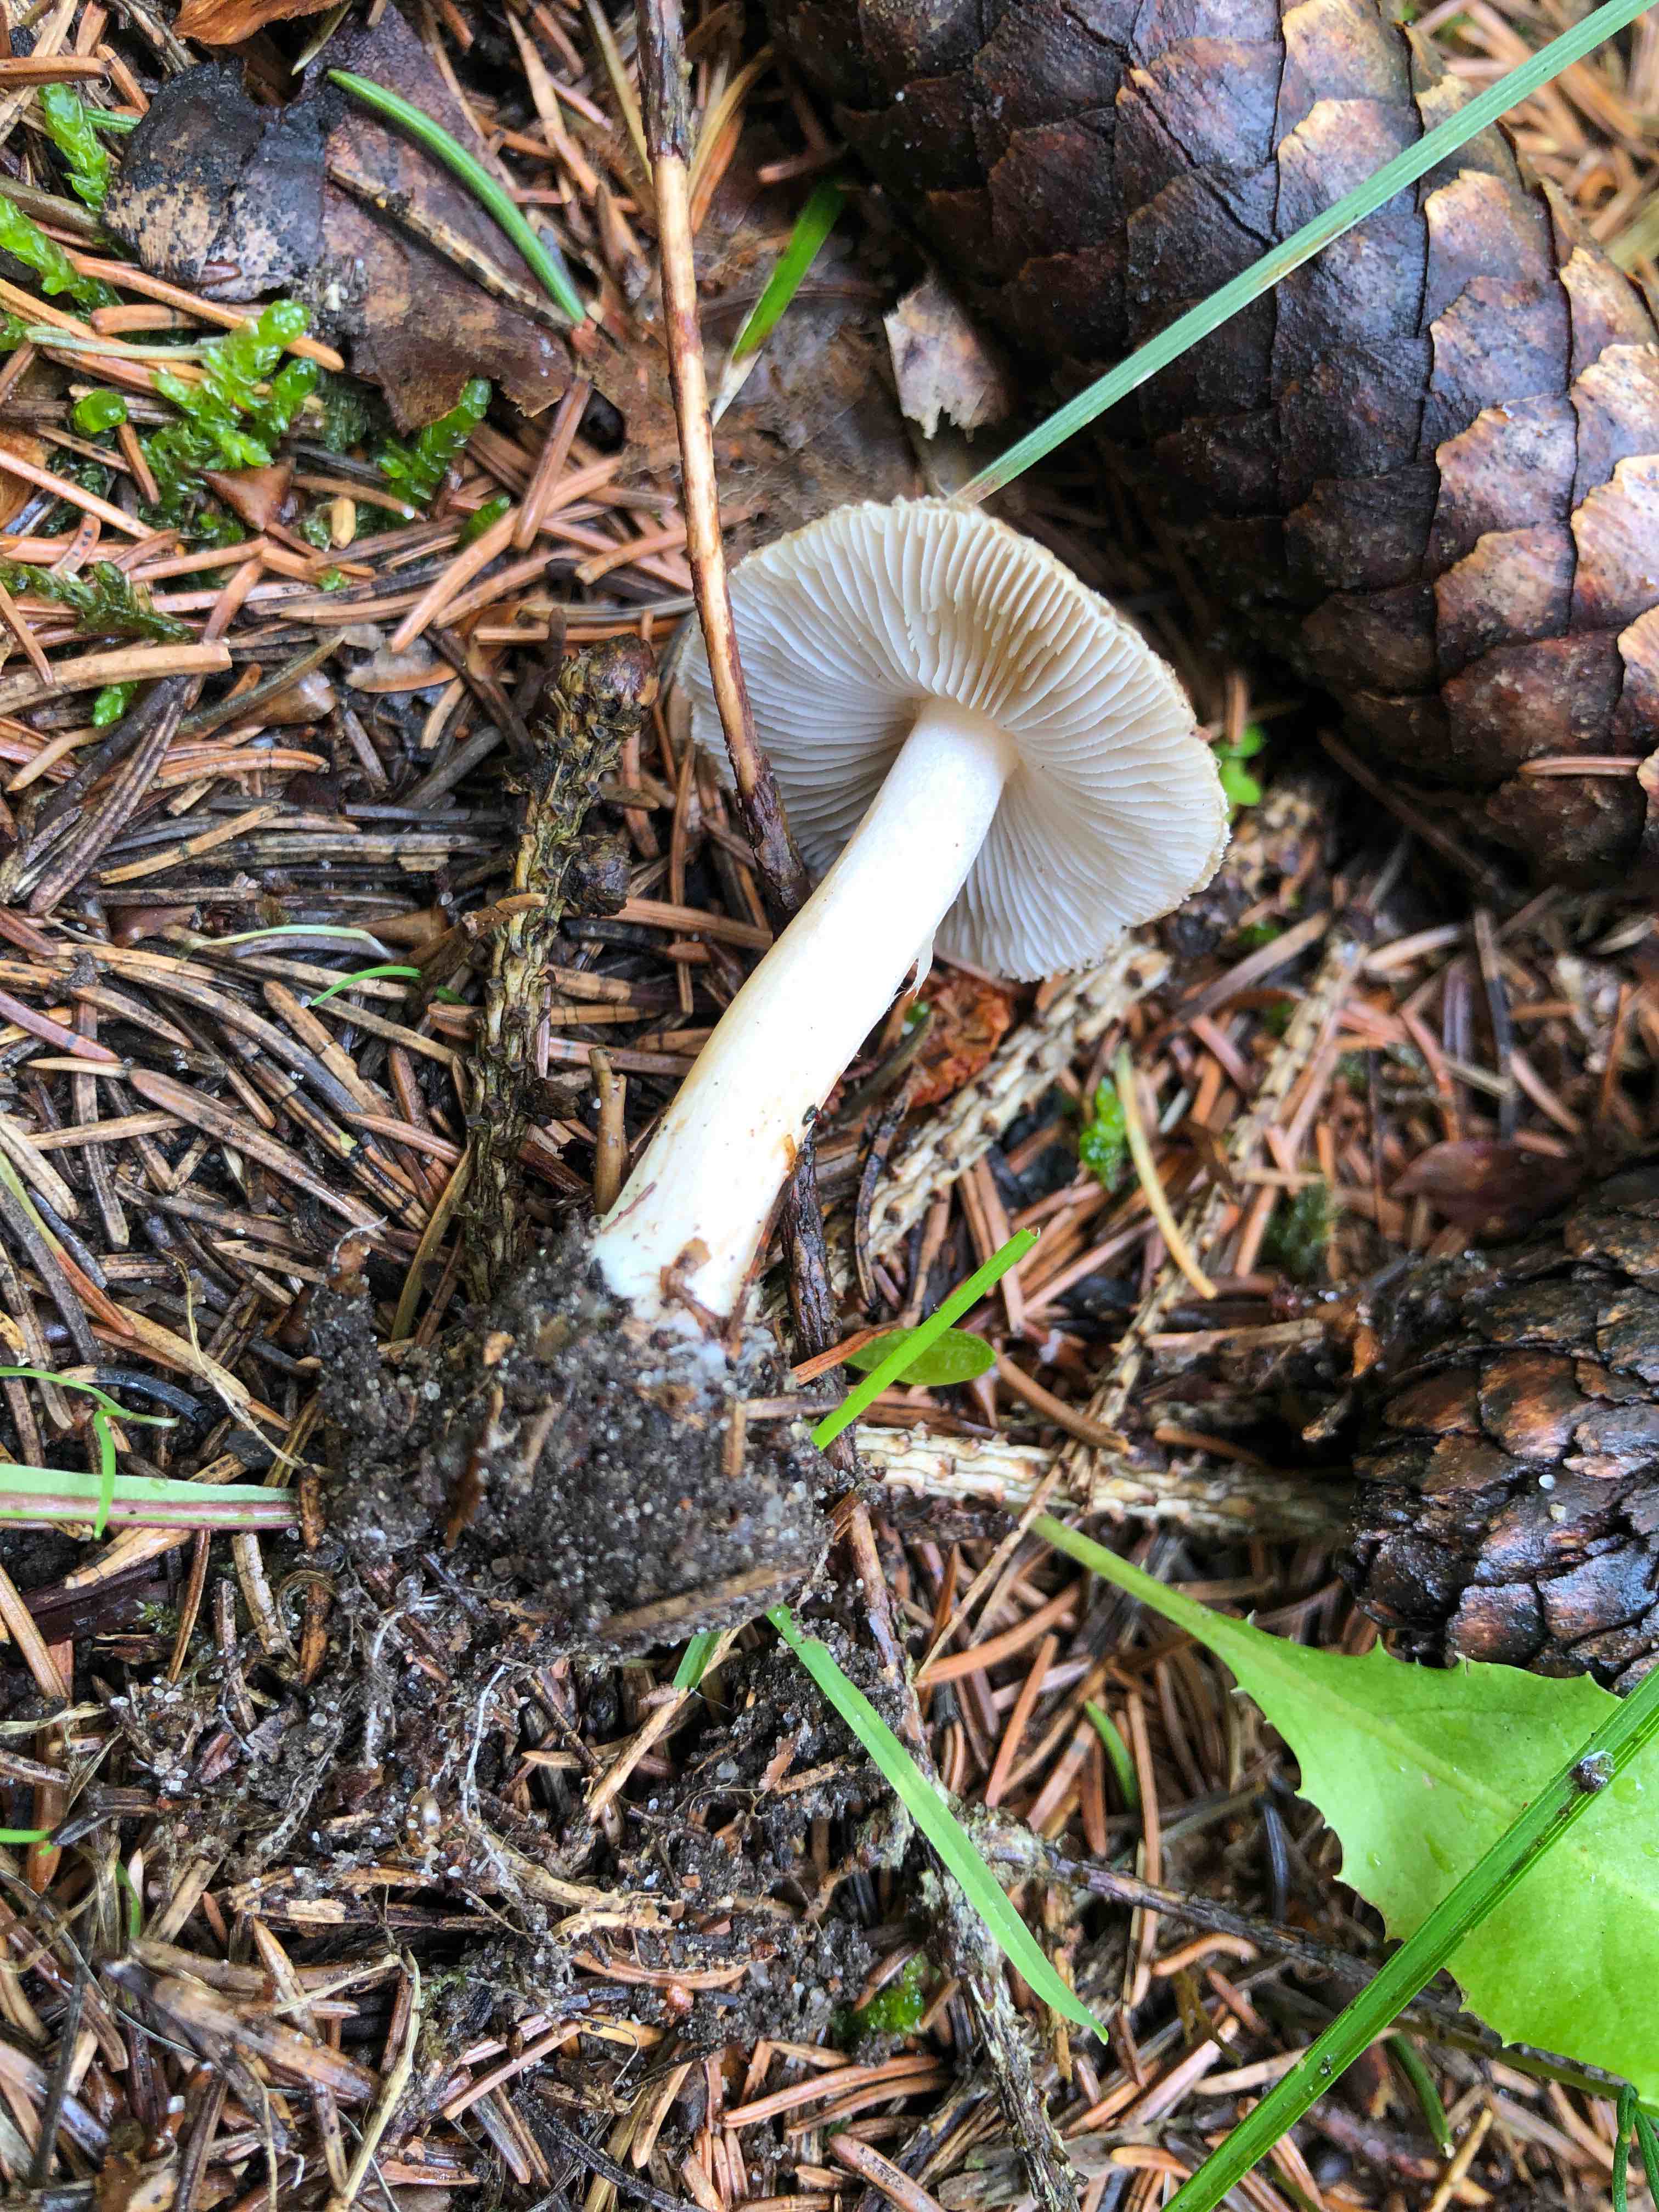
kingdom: Fungi
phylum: Basidiomycota
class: Agaricomycetes
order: Agaricales
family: Inocybaceae
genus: Inocybe
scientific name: Inocybe
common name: trævlhat
